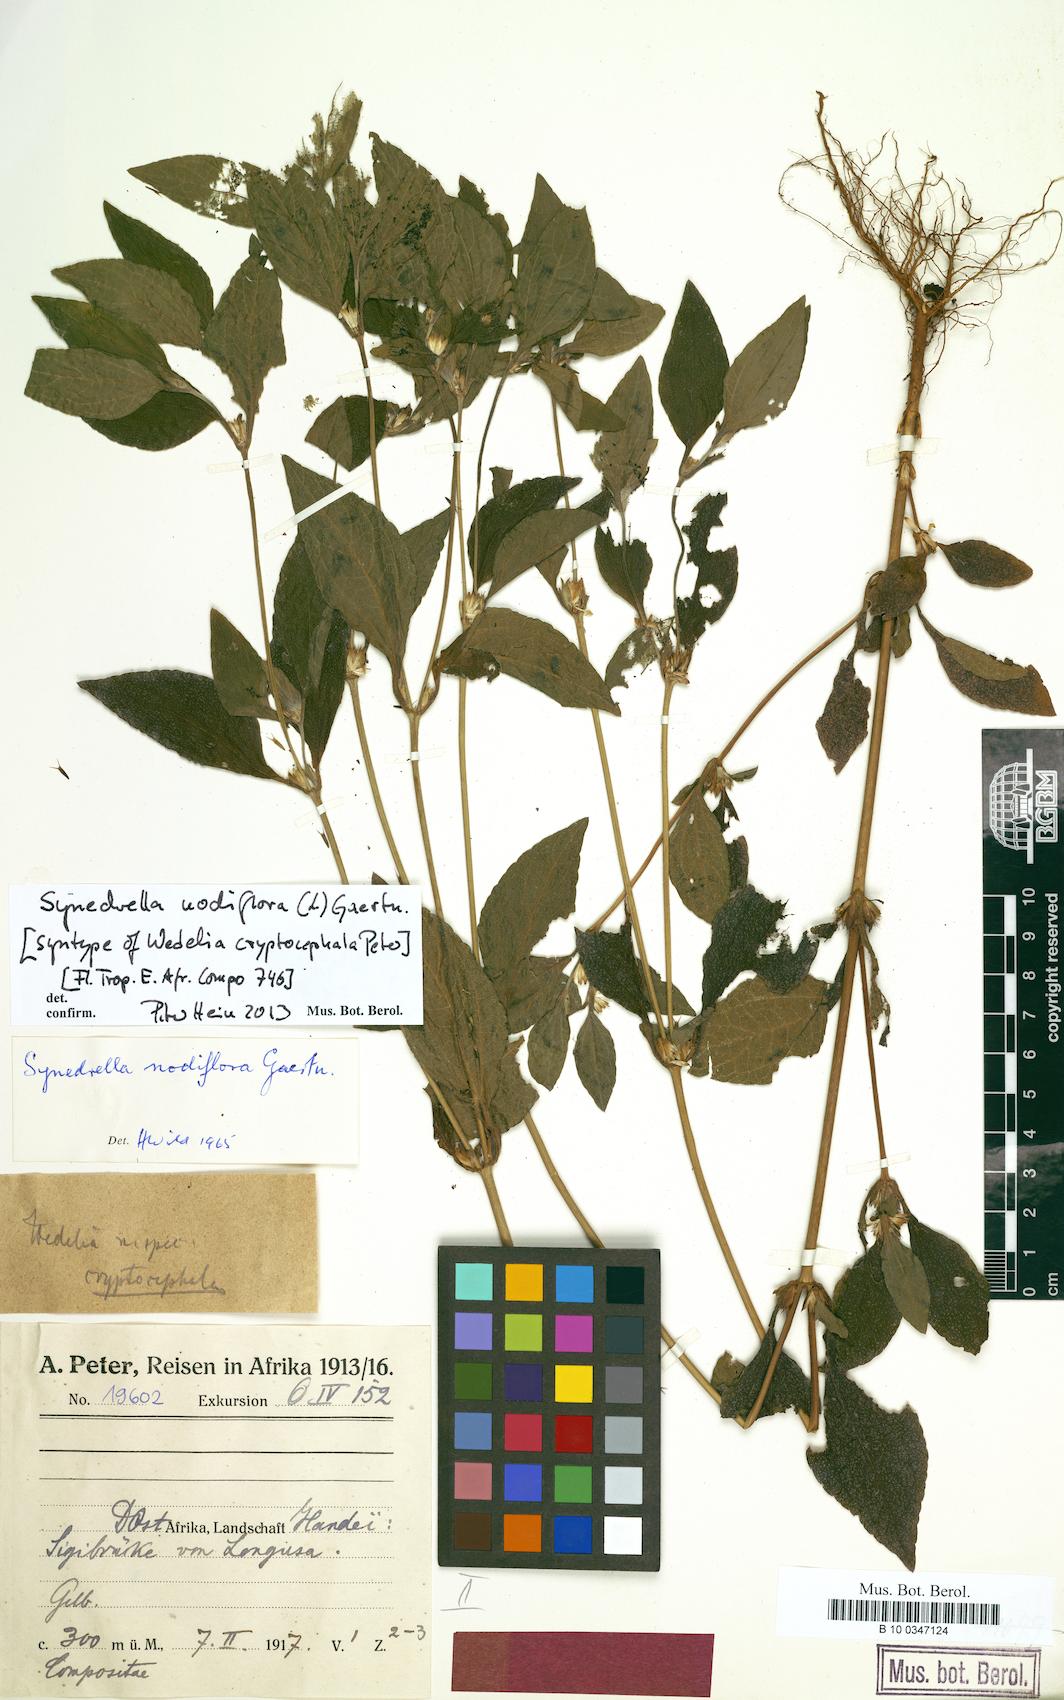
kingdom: Plantae
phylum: Tracheophyta
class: Magnoliopsida
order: Asterales
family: Asteraceae
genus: Synedrella
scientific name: Synedrella nodiflora
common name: Nodeweed
